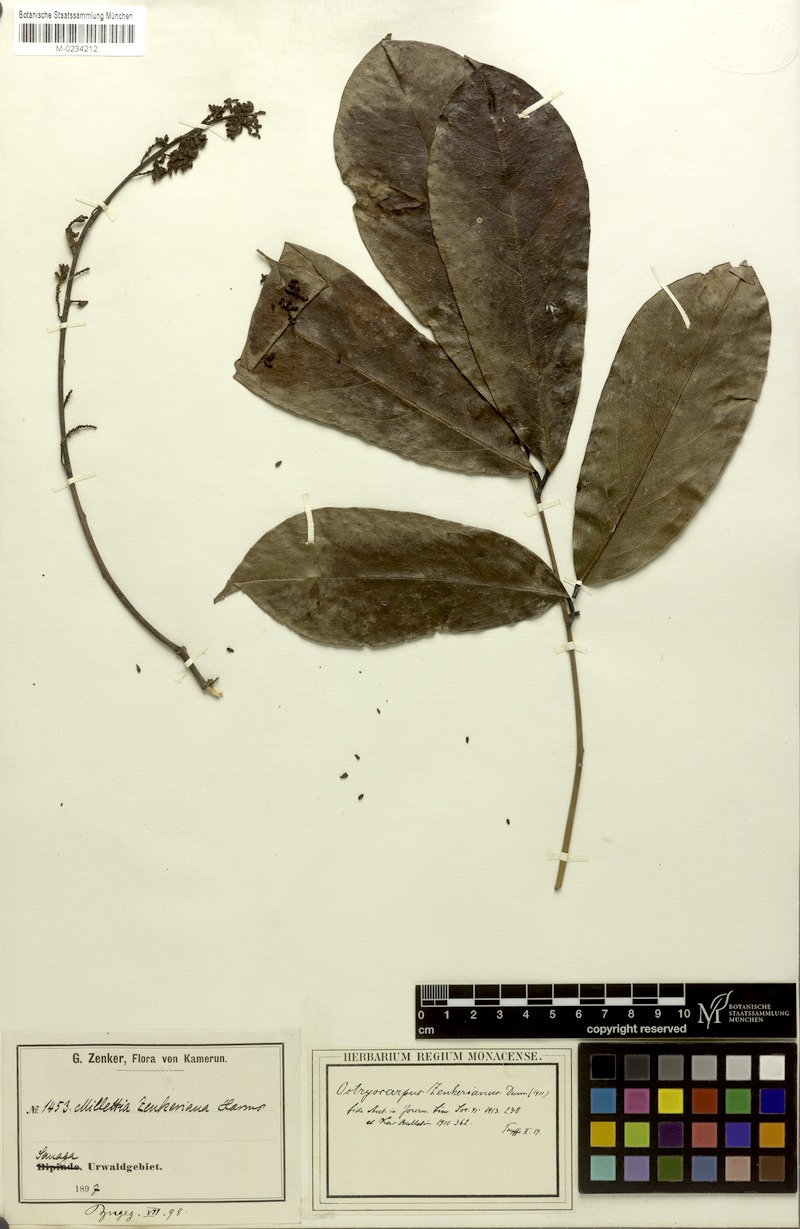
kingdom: Plantae
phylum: Tracheophyta
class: Magnoliopsida
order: Fabales
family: Fabaceae
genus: Ostryocarpus
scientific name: Ostryocarpus zenkerianus
